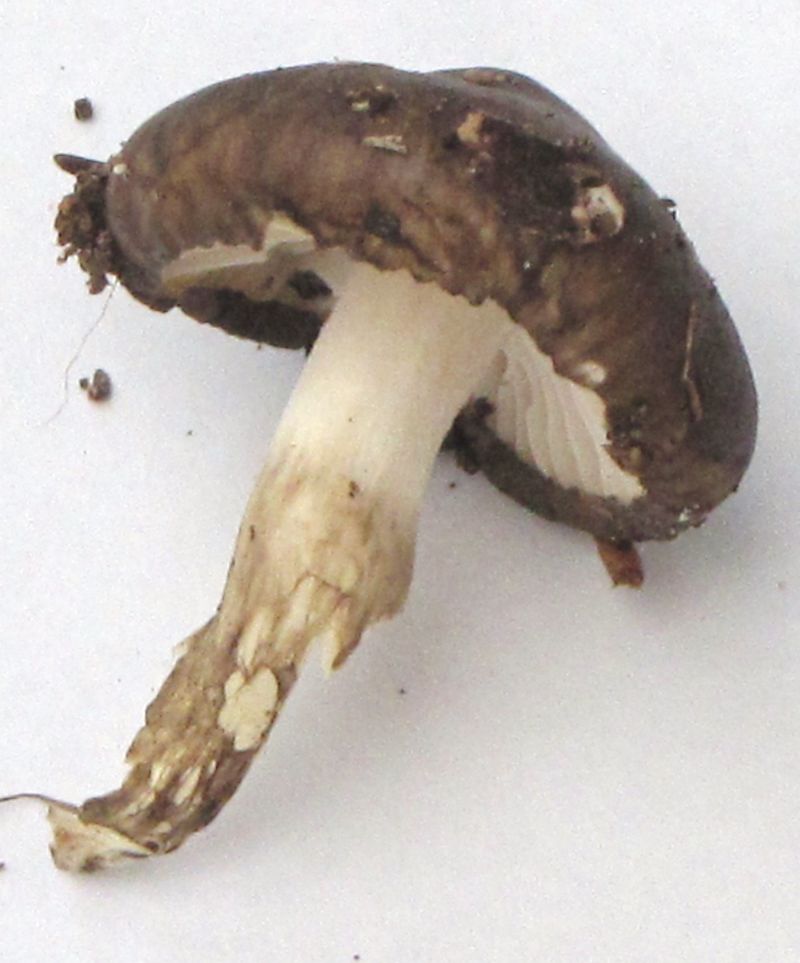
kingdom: Fungi
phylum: Basidiomycota
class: Agaricomycetes
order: Agaricales
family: Hygrophoraceae
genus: Hygrophorus
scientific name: Hygrophorus olivaceoalbus
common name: hvidbrun sneglehat
